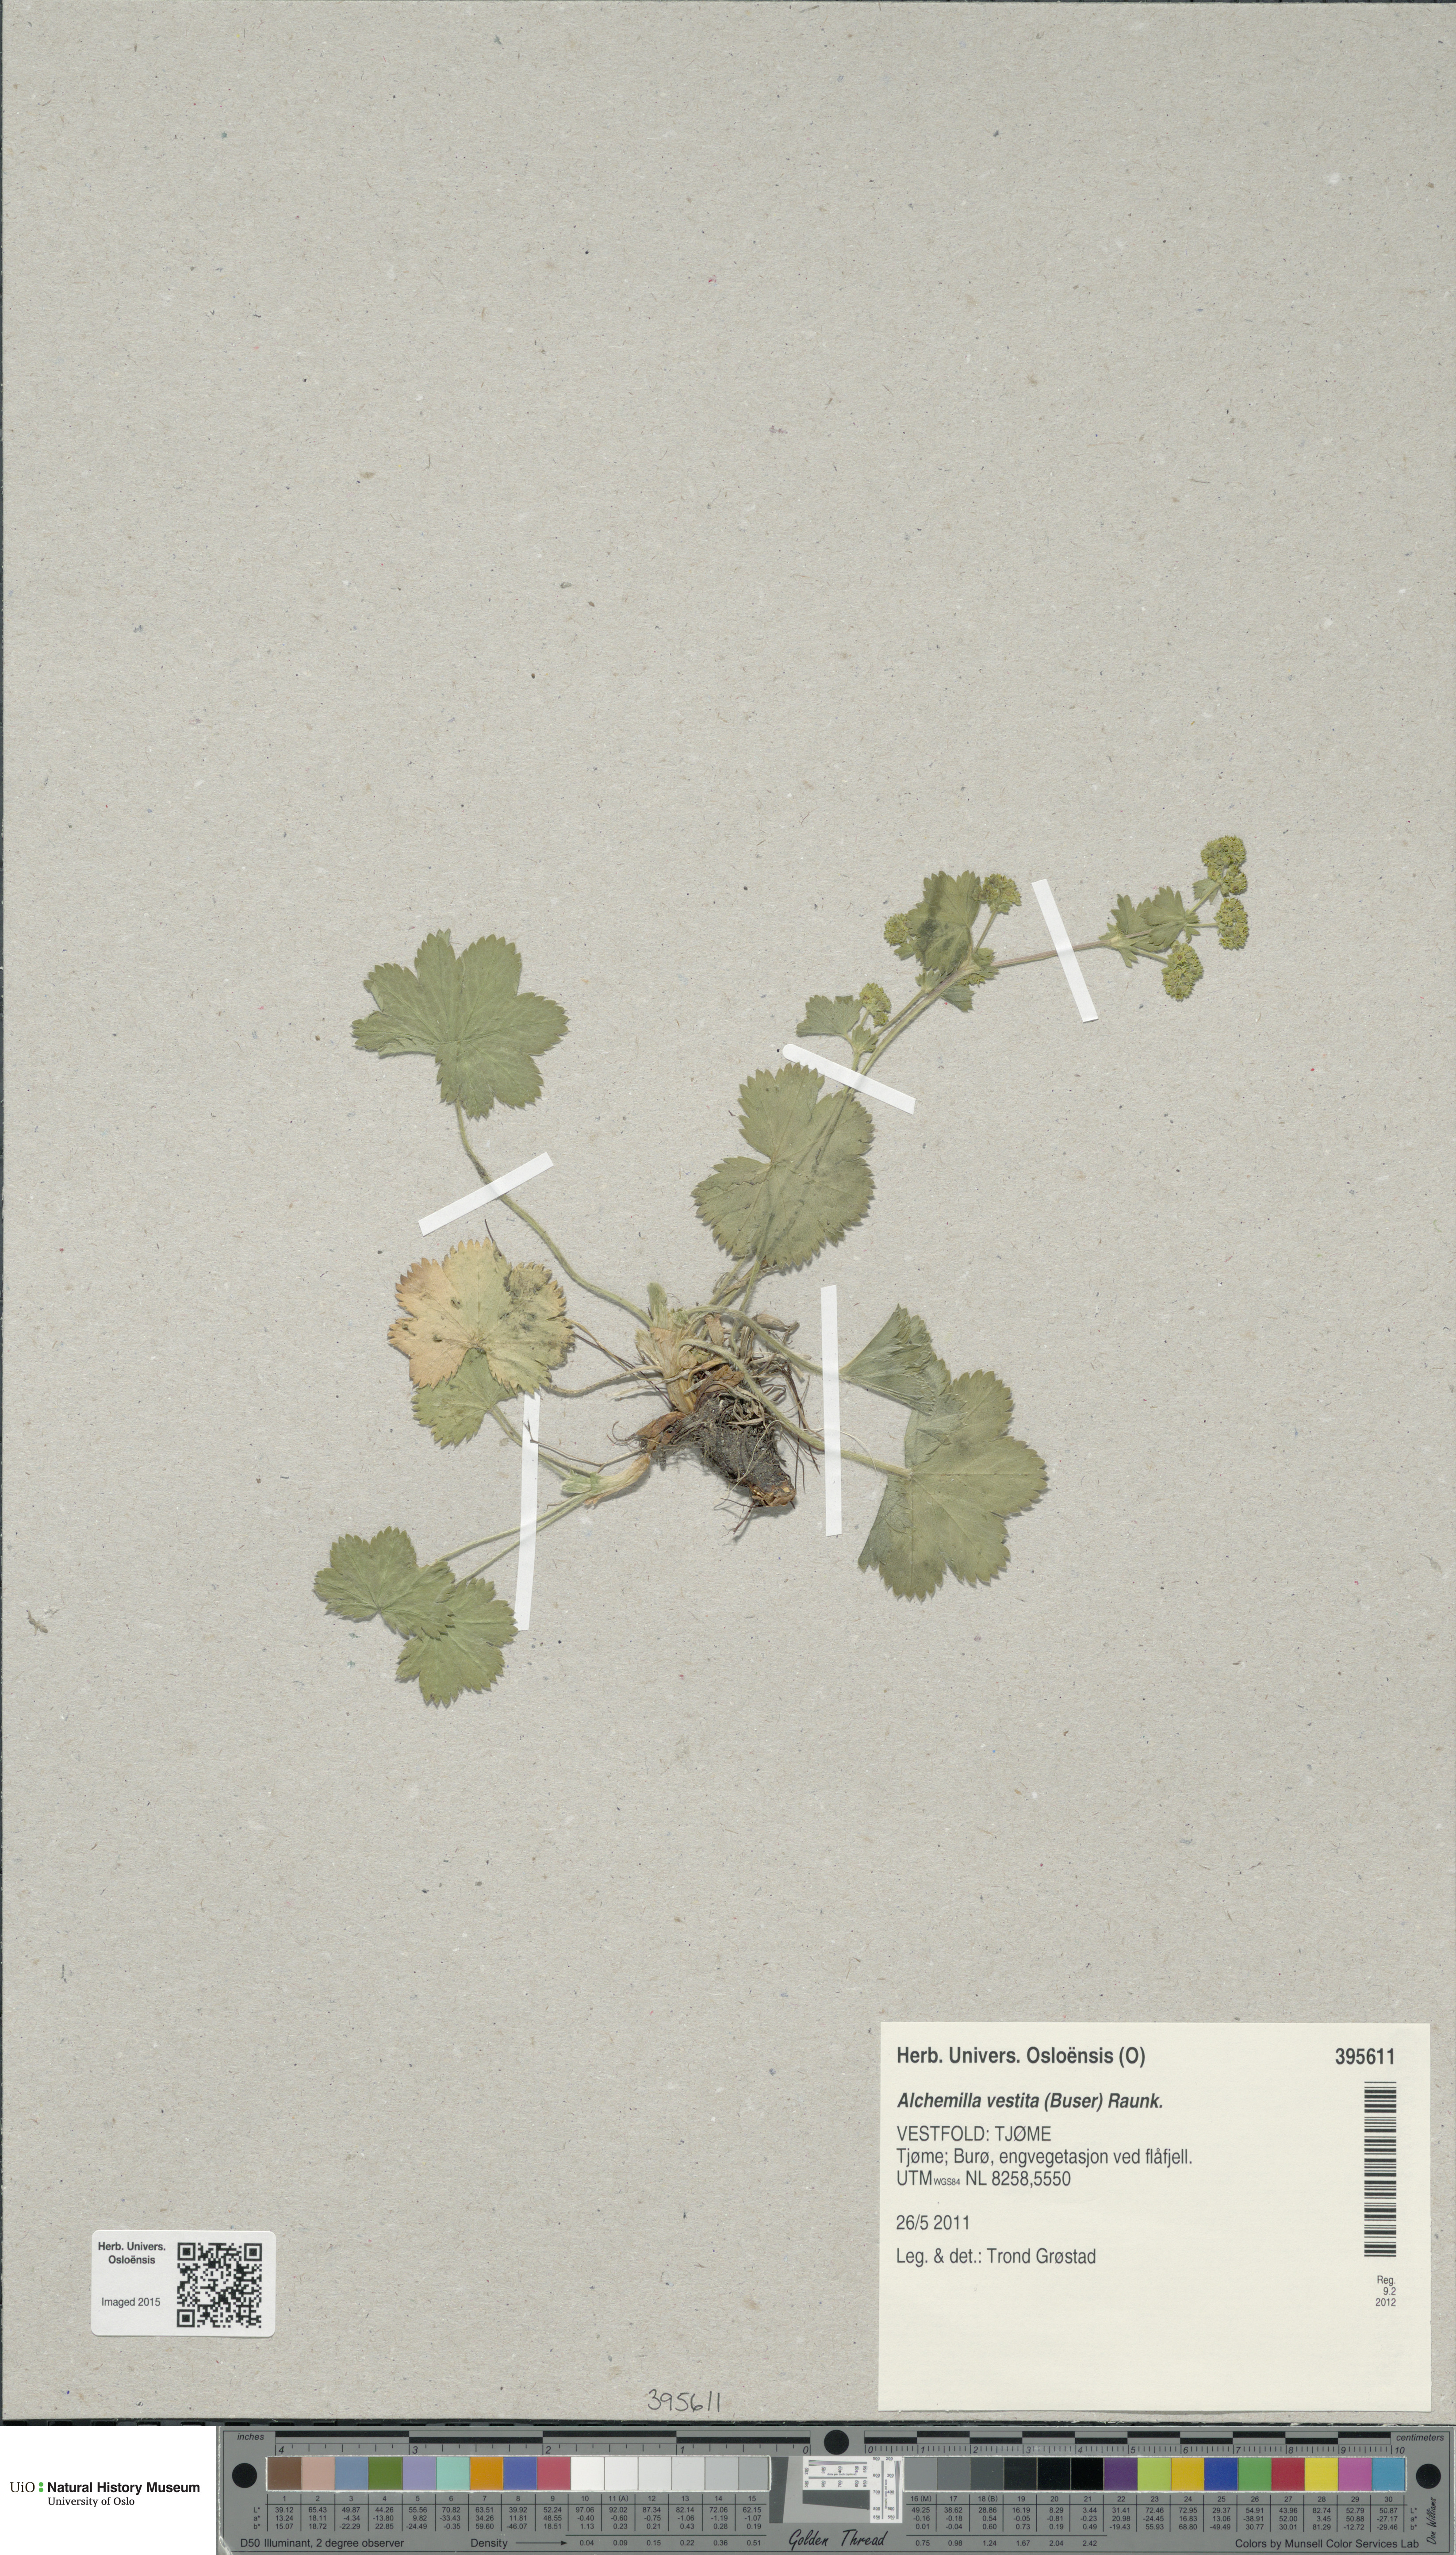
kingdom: Plantae
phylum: Tracheophyta
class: Magnoliopsida
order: Rosales
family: Rosaceae
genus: Alchemilla
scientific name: Alchemilla filicaulis
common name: Hairy lady's-mantle
